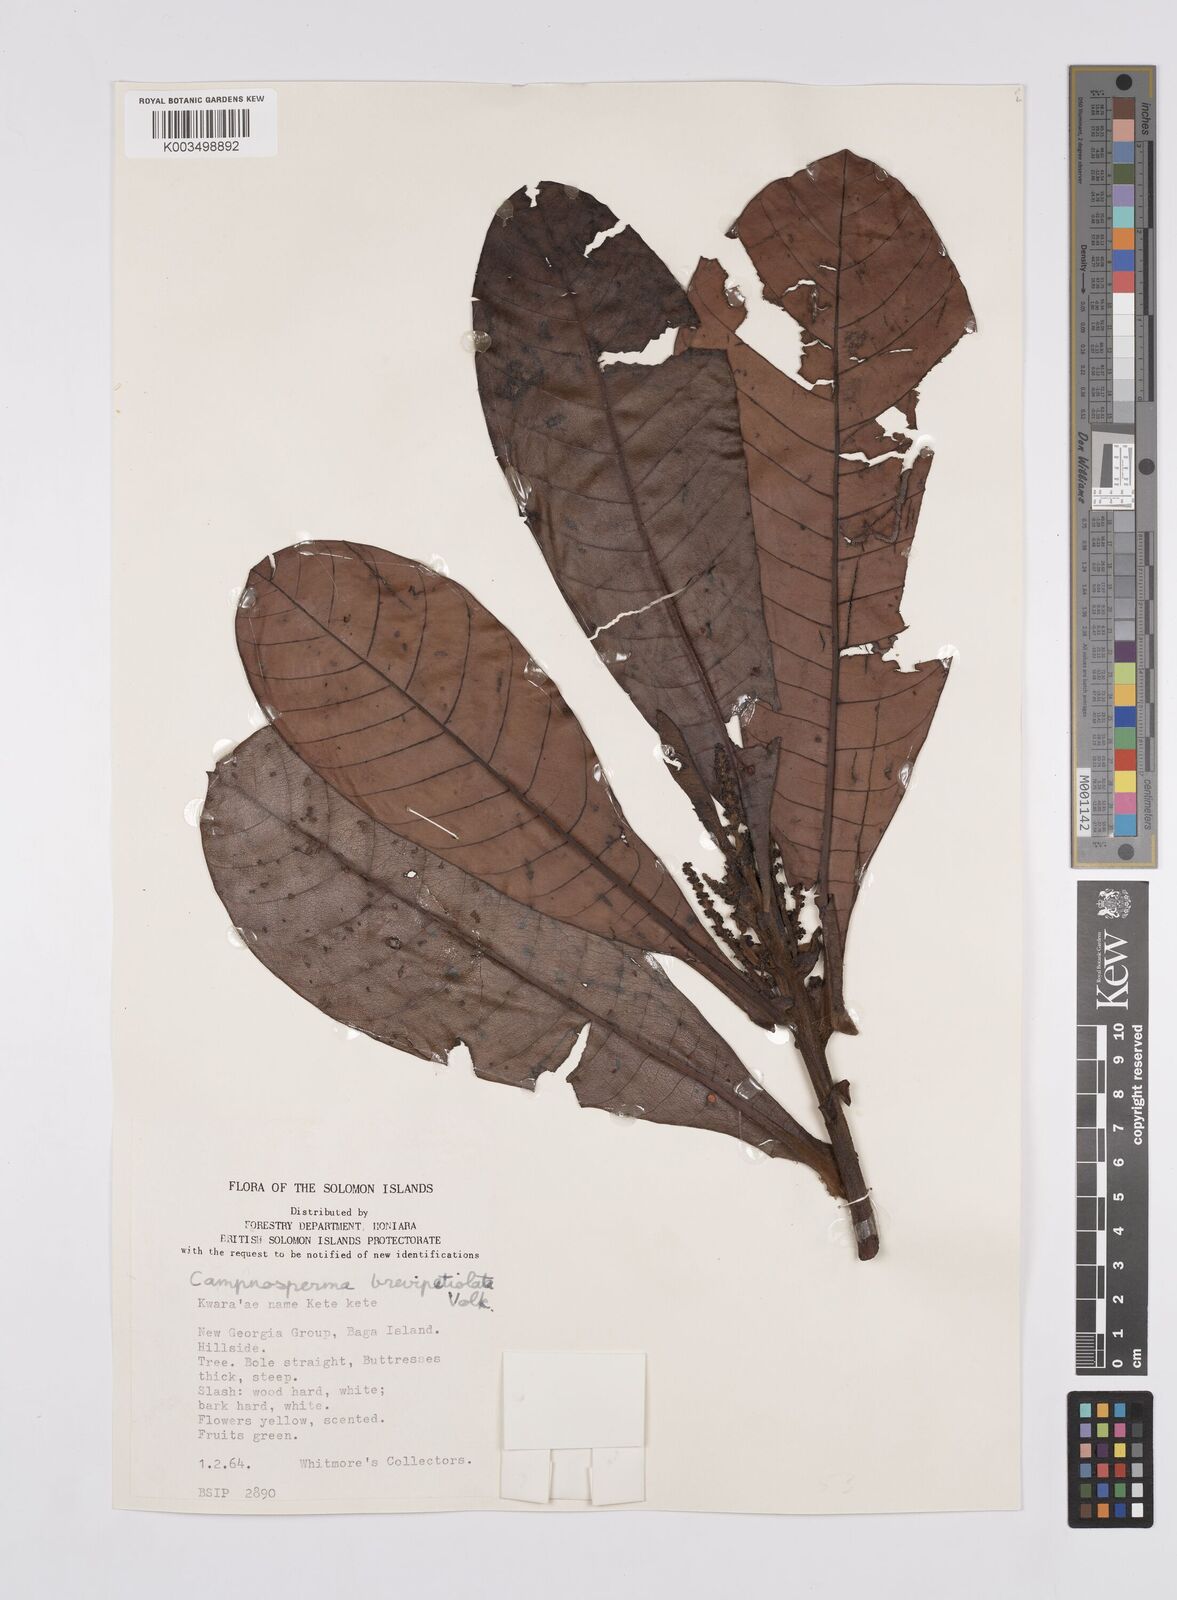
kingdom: Plantae
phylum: Tracheophyta
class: Magnoliopsida
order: Sapindales
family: Anacardiaceae
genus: Campnosperma
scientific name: Campnosperma brevipetiolatum
